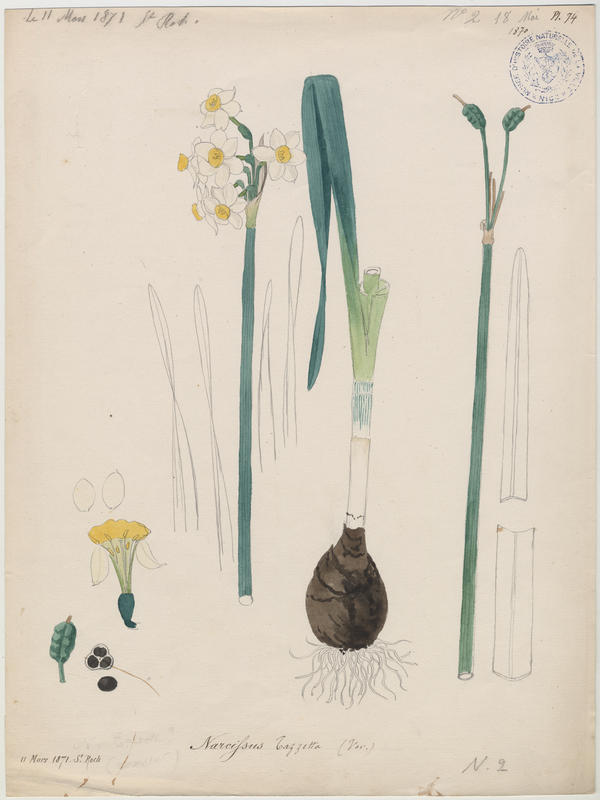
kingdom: Plantae
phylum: Tracheophyta
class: Liliopsida
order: Asparagales
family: Amaryllidaceae
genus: Narcissus
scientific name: Narcissus tazetta
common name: Bunch-flowered daffodil
